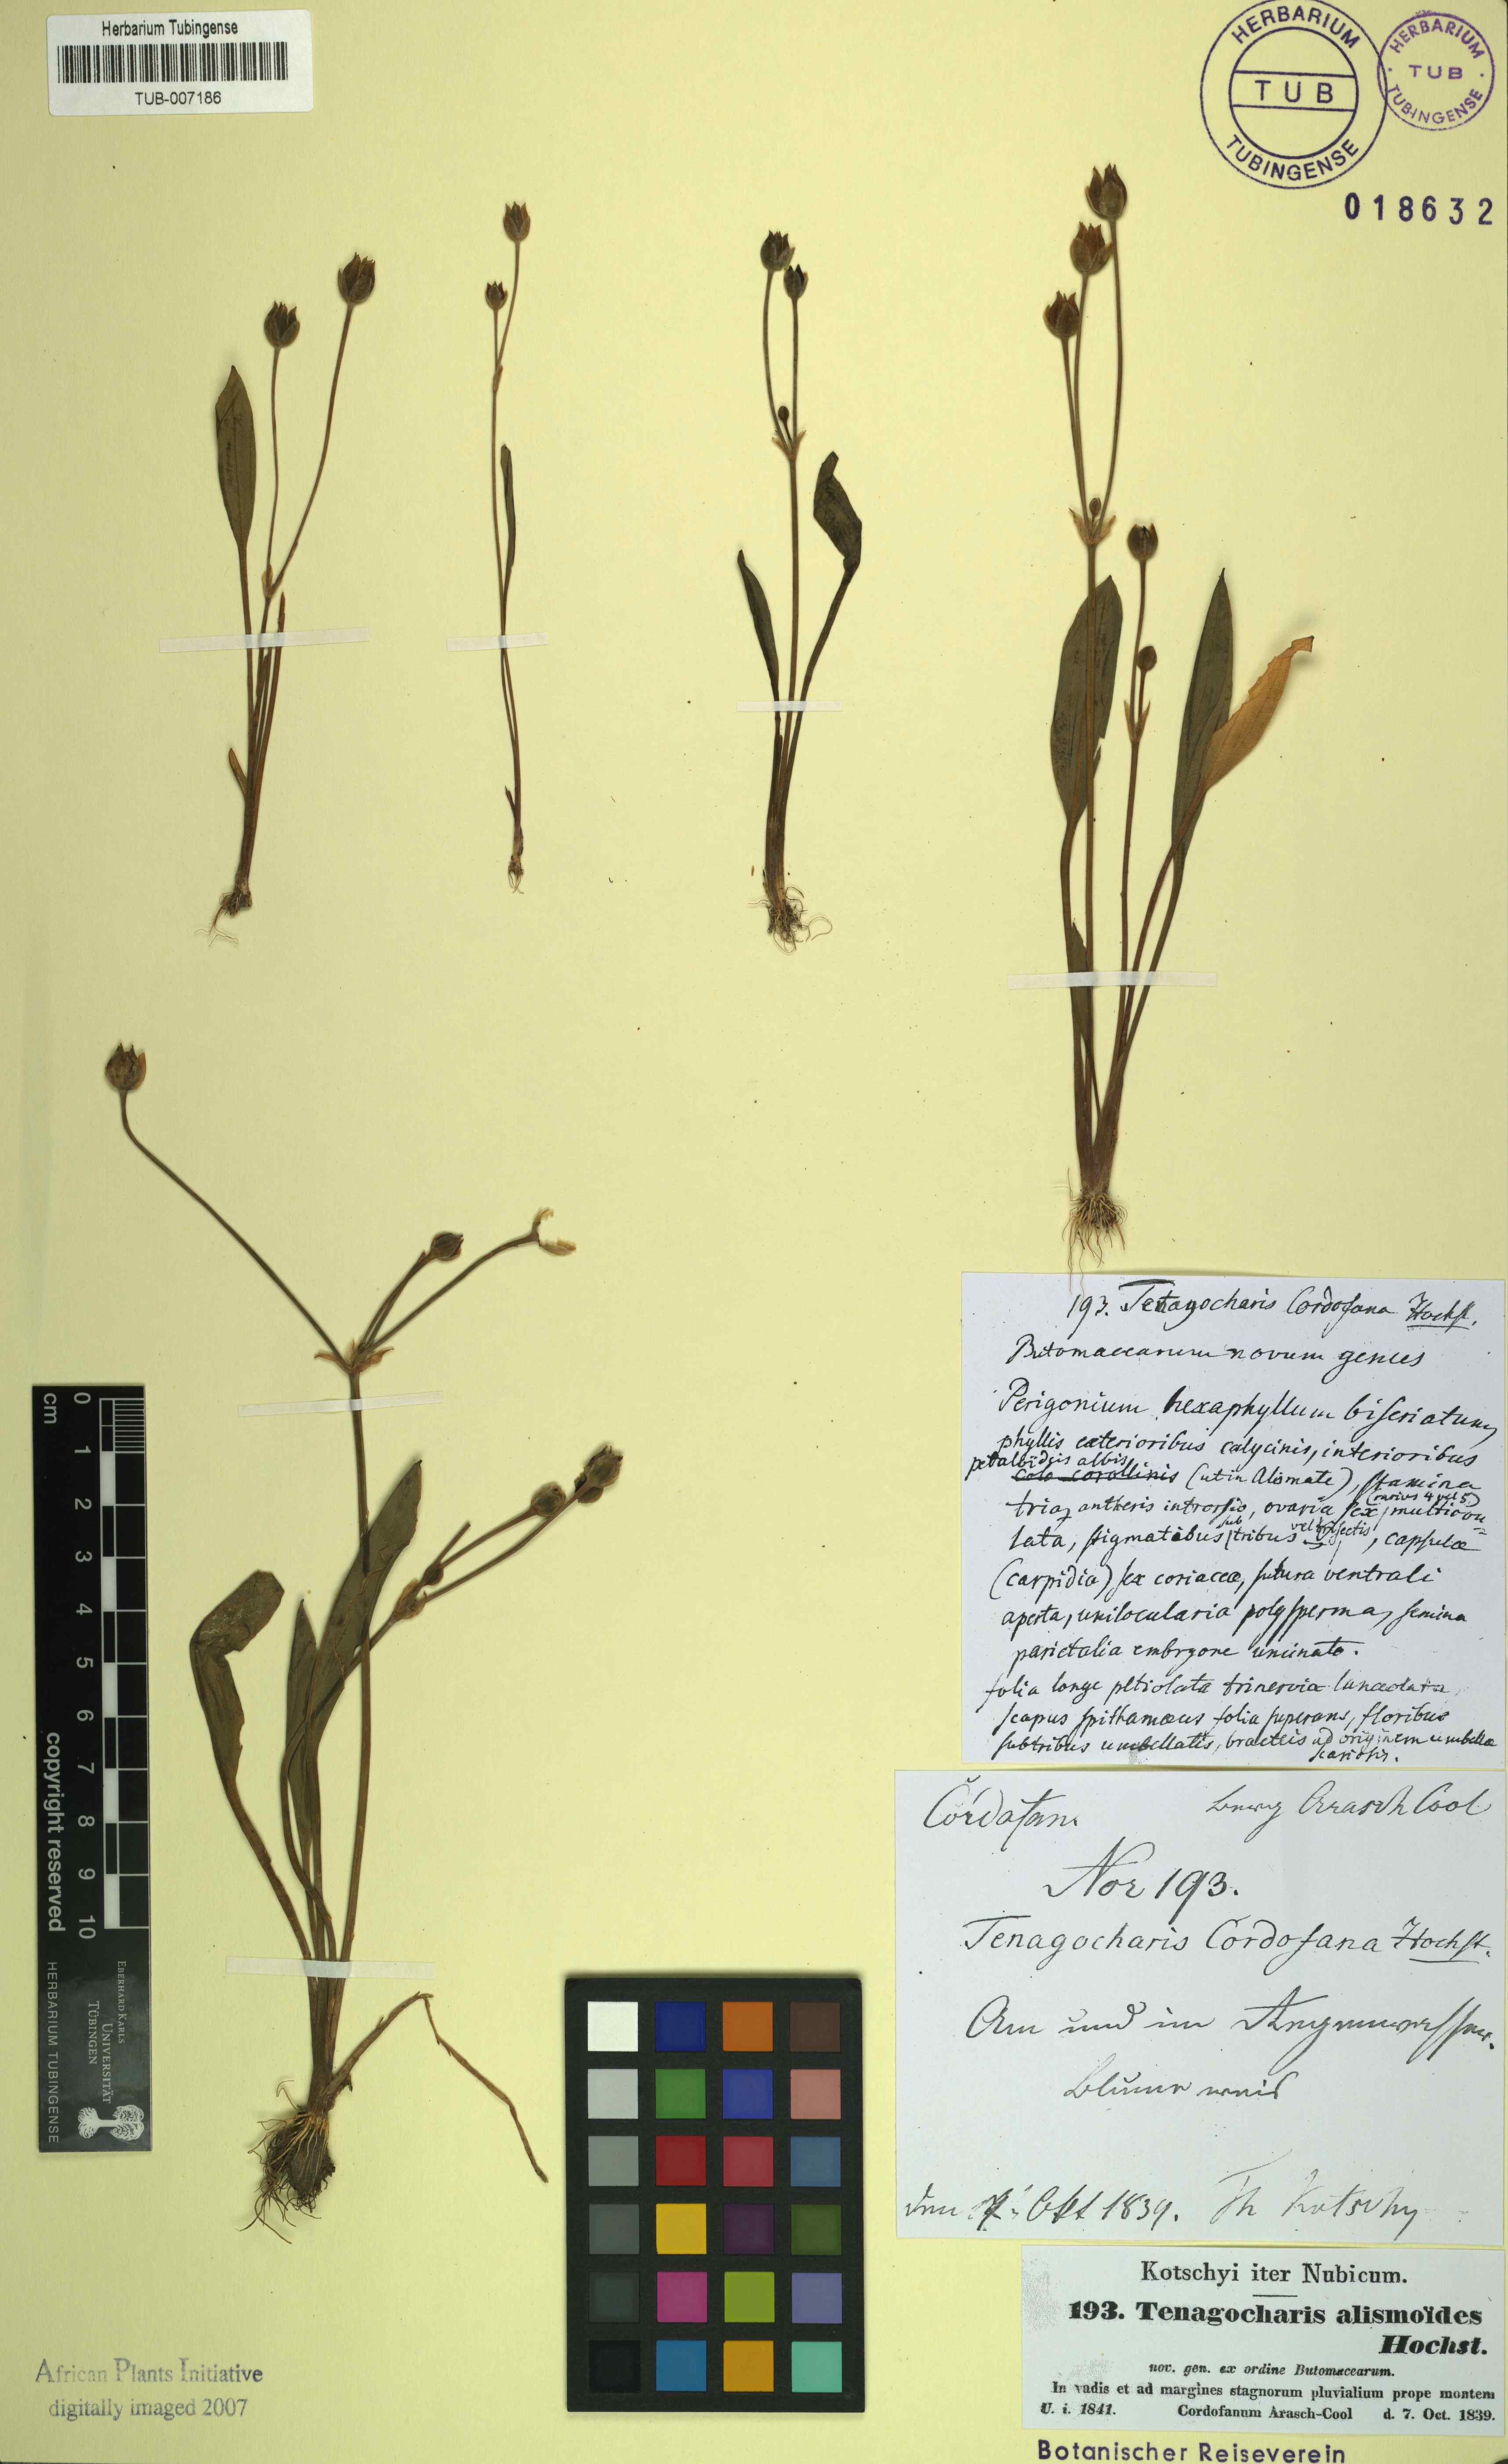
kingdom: Plantae
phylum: Tracheophyta
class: Liliopsida
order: Alismatales
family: Alismataceae
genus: Butomopsis
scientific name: Butomopsis latifolia
